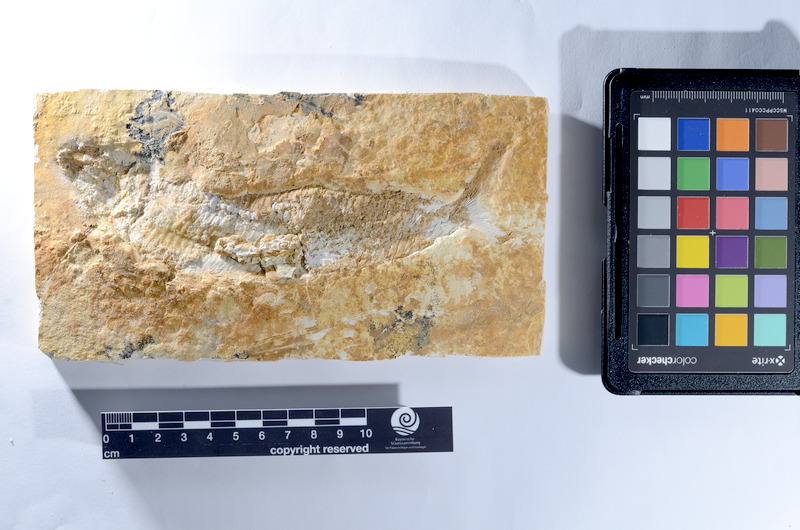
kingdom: Animalia
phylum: Chordata
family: Pholidophoridae
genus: Pholidophorus
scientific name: Pholidophorus
